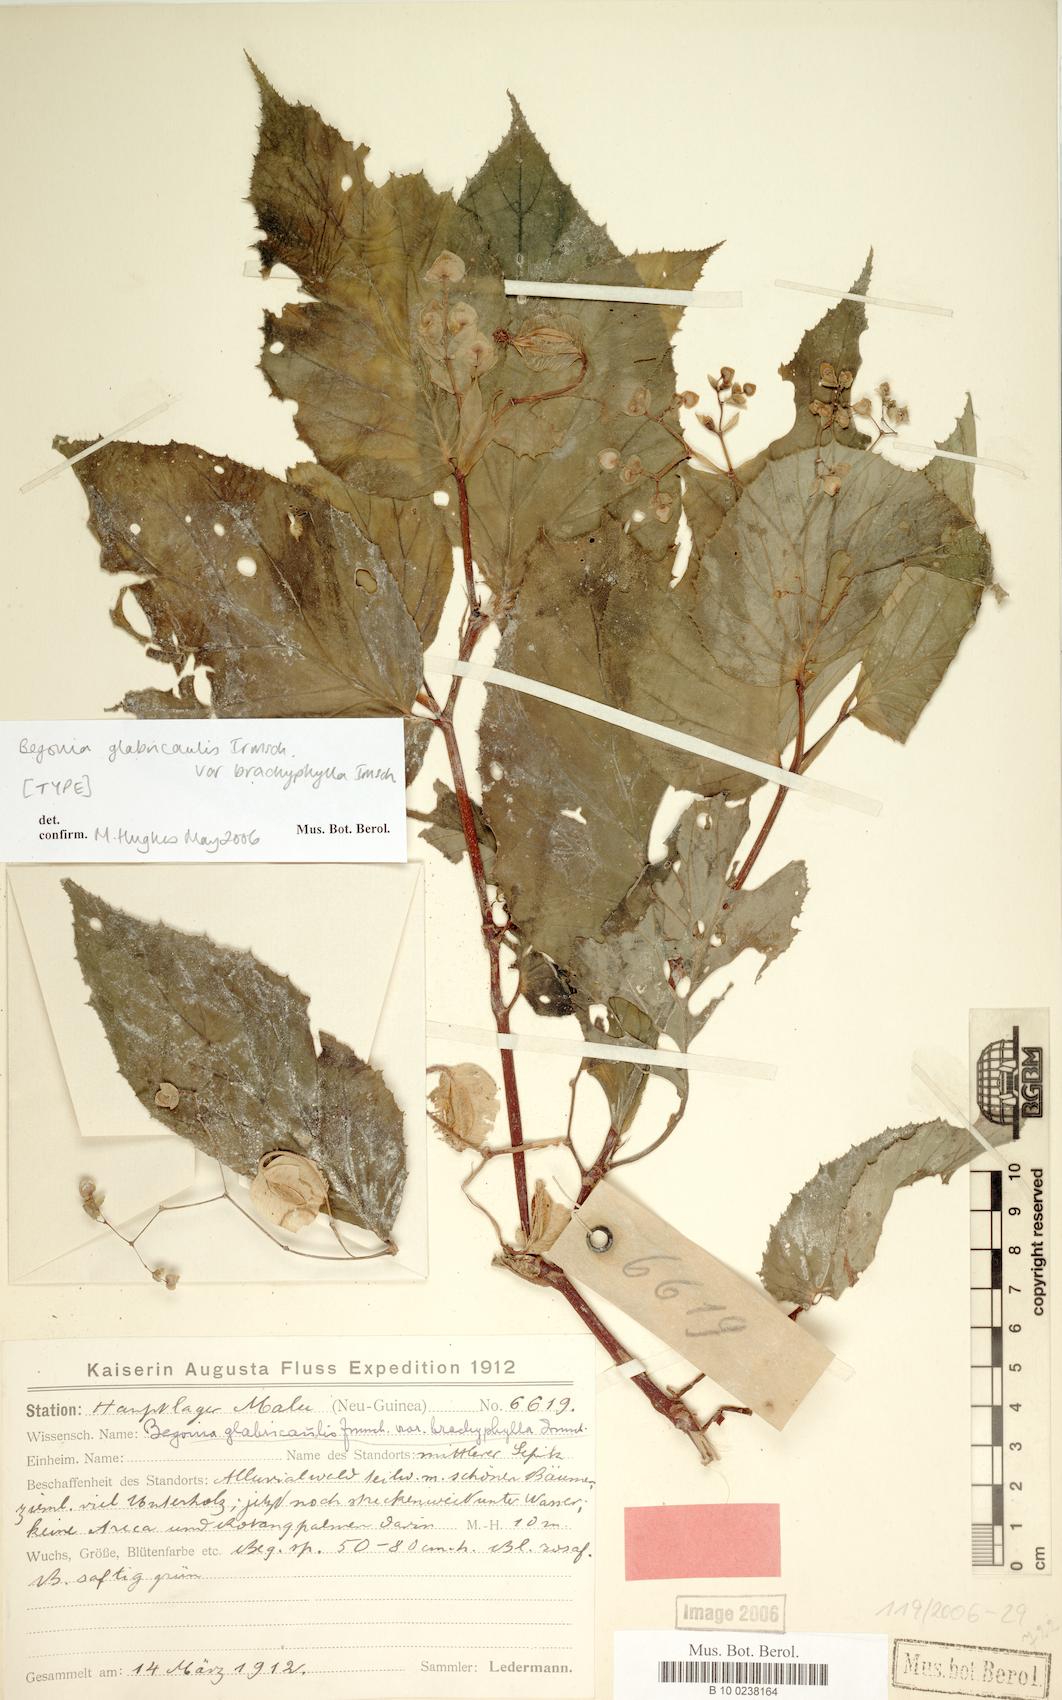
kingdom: Plantae
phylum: Tracheophyta
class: Magnoliopsida
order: Cucurbitales
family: Begoniaceae
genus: Begonia
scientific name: Begonia glabricaulis
